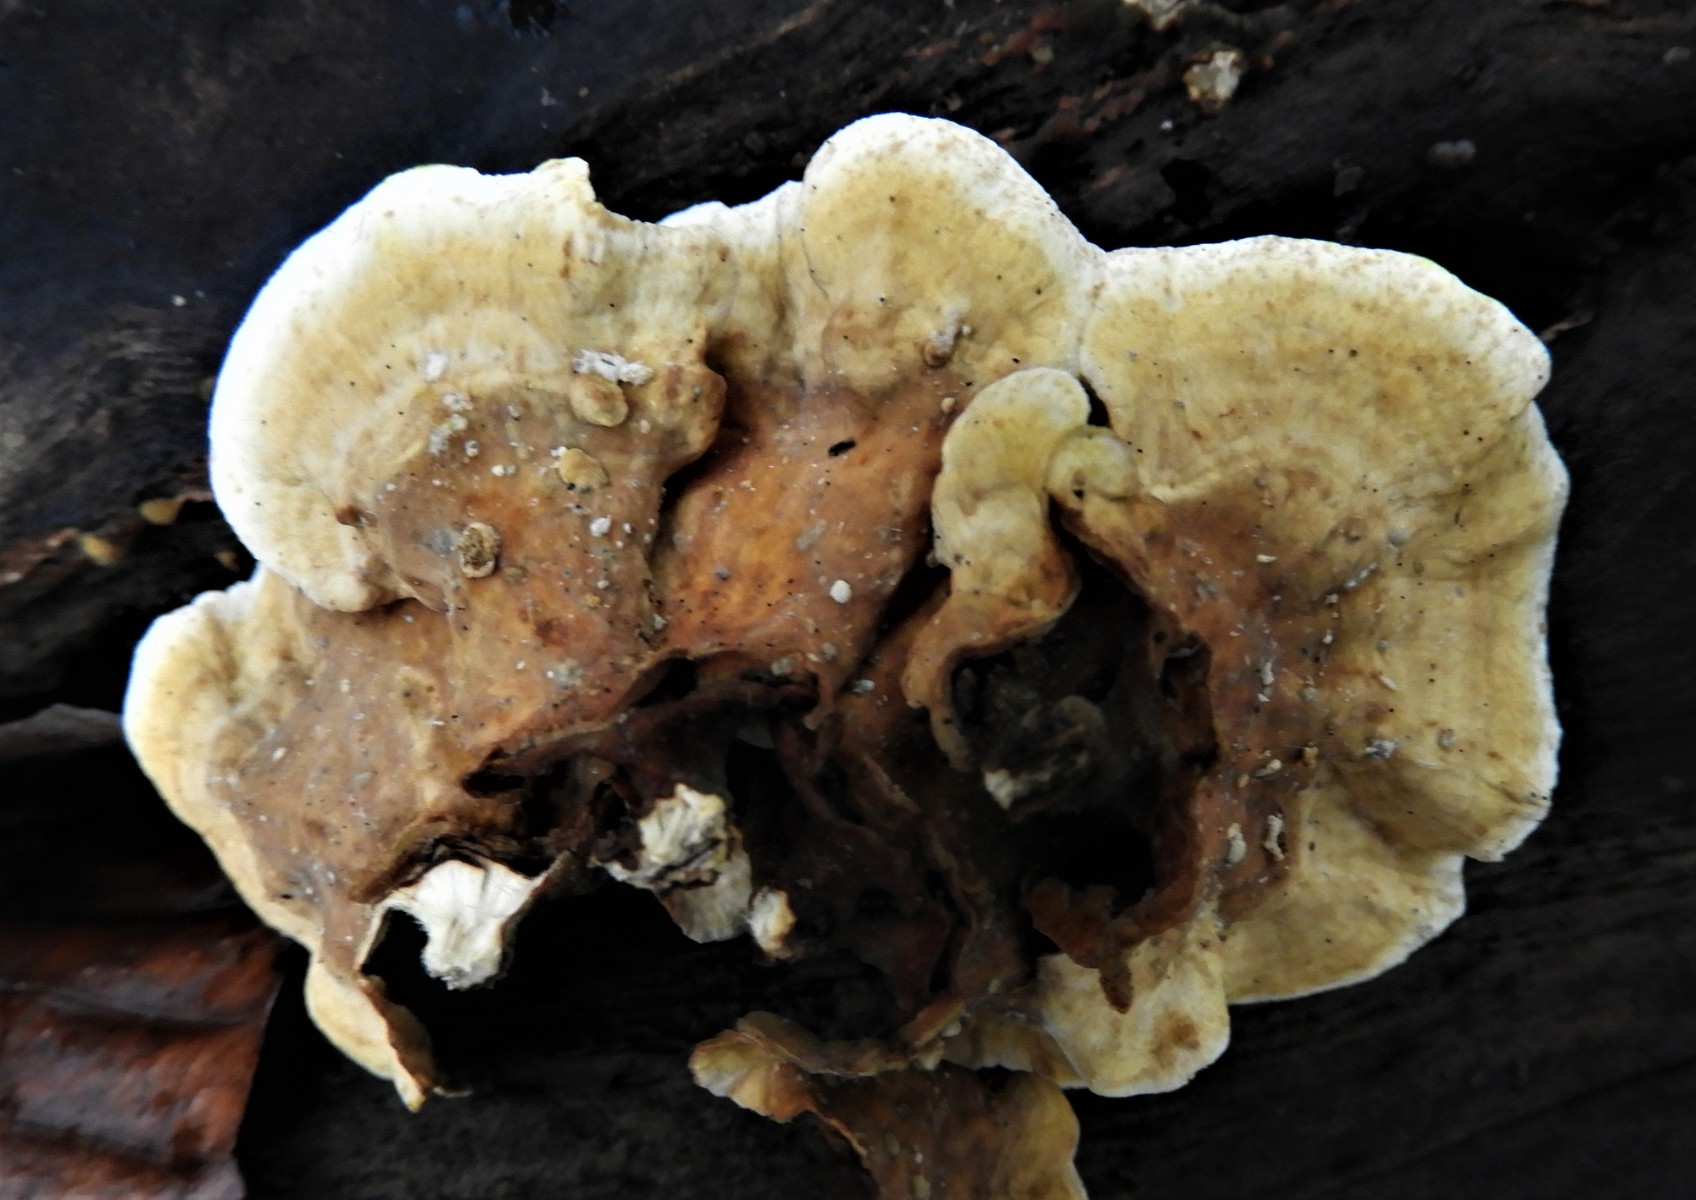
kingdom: Fungi
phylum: Basidiomycota
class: Agaricomycetes
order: Russulales
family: Stereaceae
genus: Stereum
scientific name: Stereum subtomentosum
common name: smuk lædersvamp
